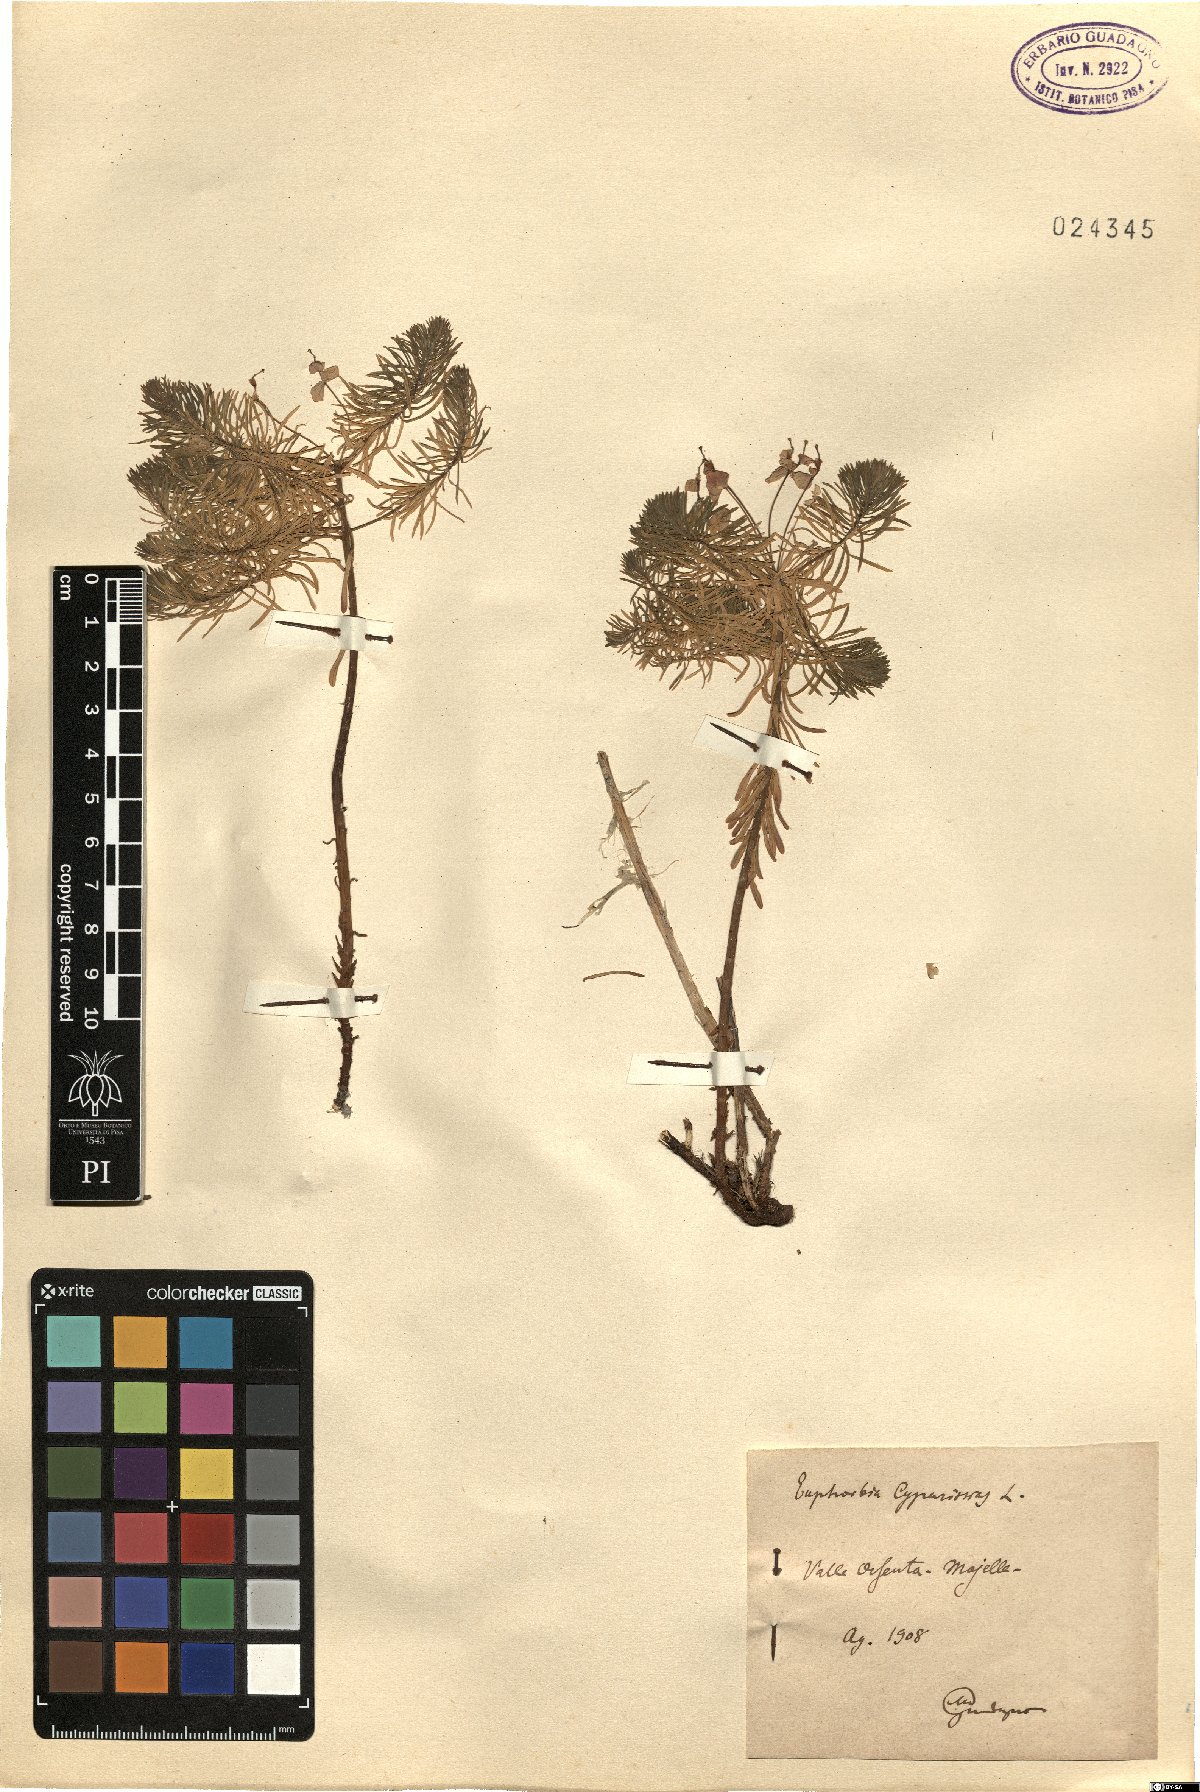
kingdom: Plantae
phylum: Tracheophyta
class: Magnoliopsida
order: Malpighiales
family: Euphorbiaceae
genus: Euphorbia
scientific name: Euphorbia cyparissias
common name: Cypress spurge
